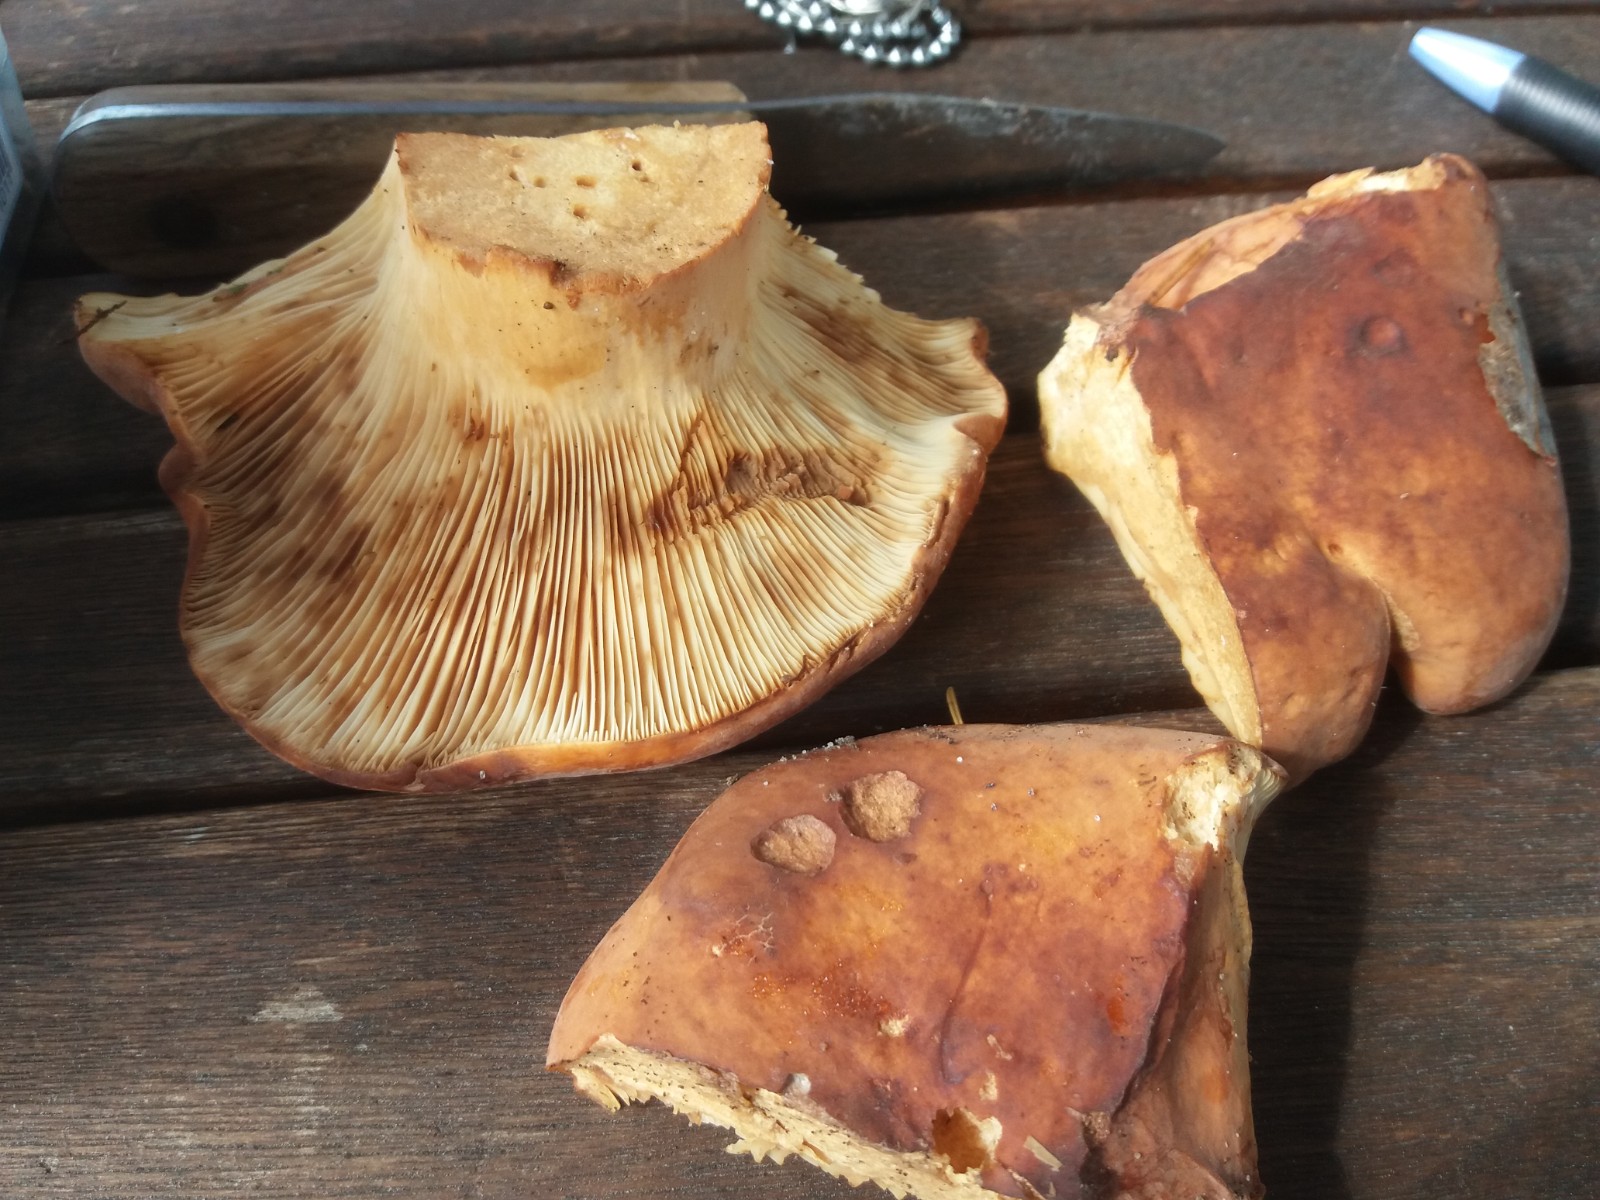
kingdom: Fungi
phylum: Basidiomycota
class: Agaricomycetes
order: Russulales
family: Russulaceae
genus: Lactifluus
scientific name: Lactifluus volemus
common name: spiselig mælkehat
